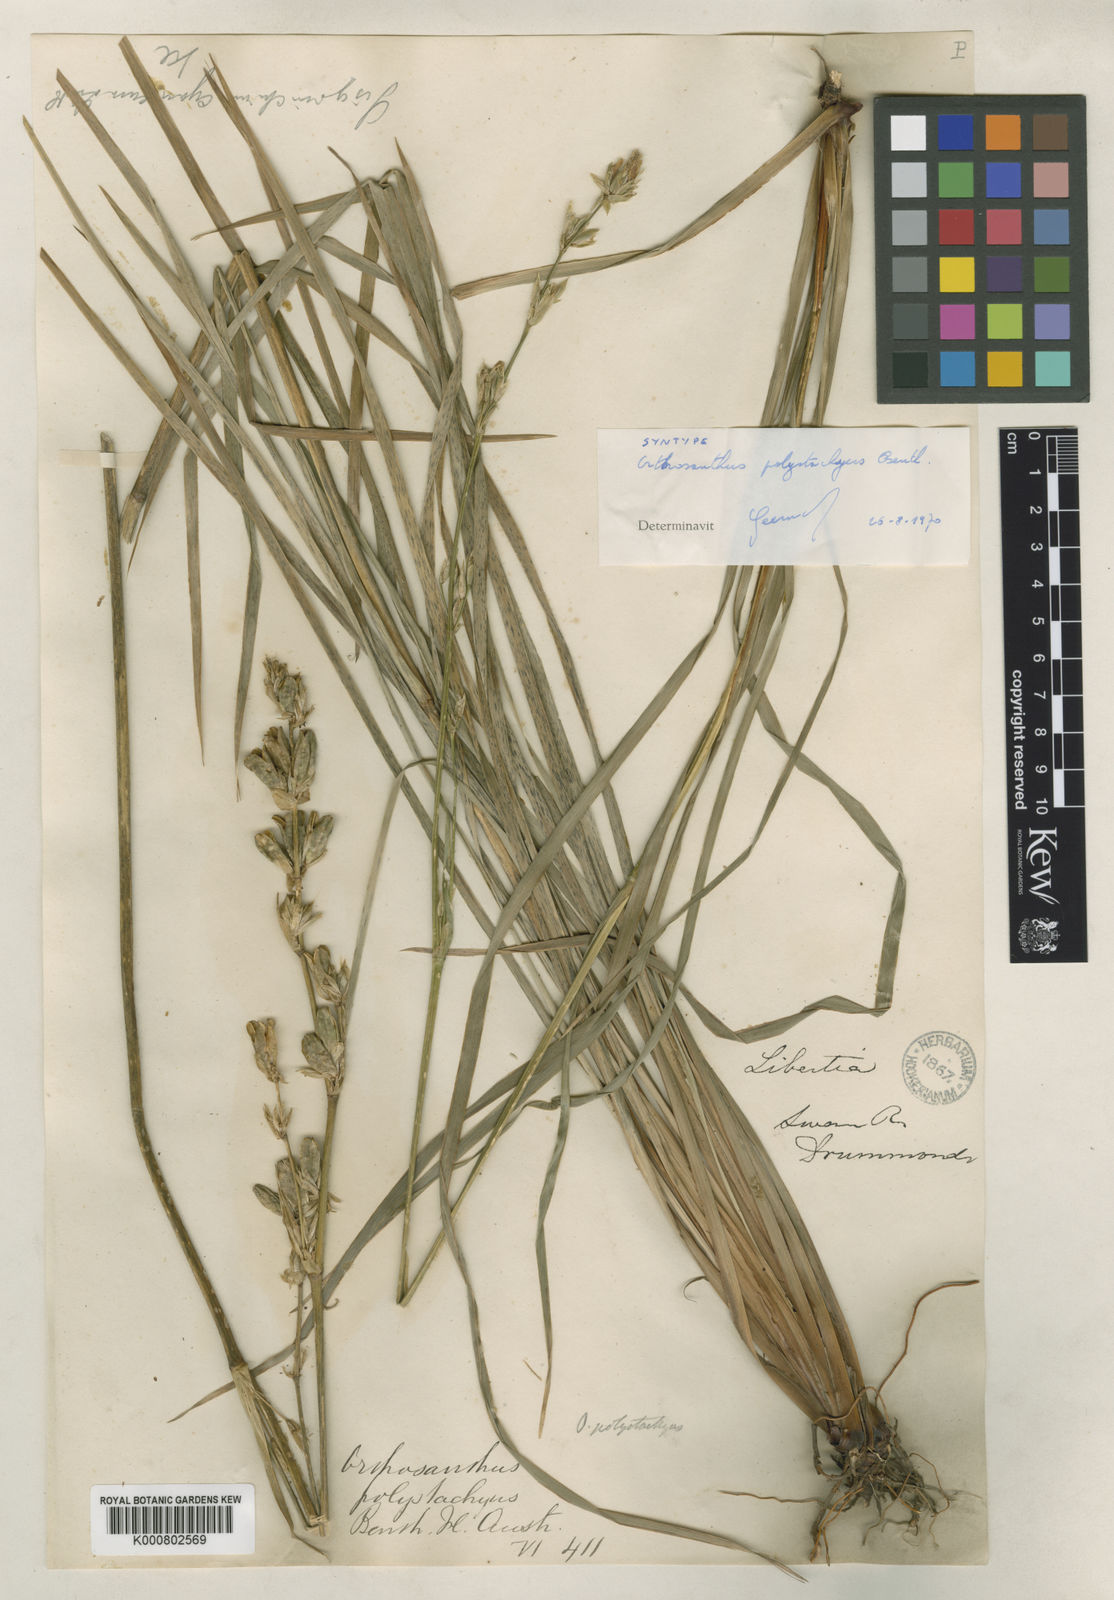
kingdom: Plantae
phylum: Tracheophyta
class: Liliopsida
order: Asparagales
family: Iridaceae
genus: Orthrosanthus
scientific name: Orthrosanthus polystachyus
